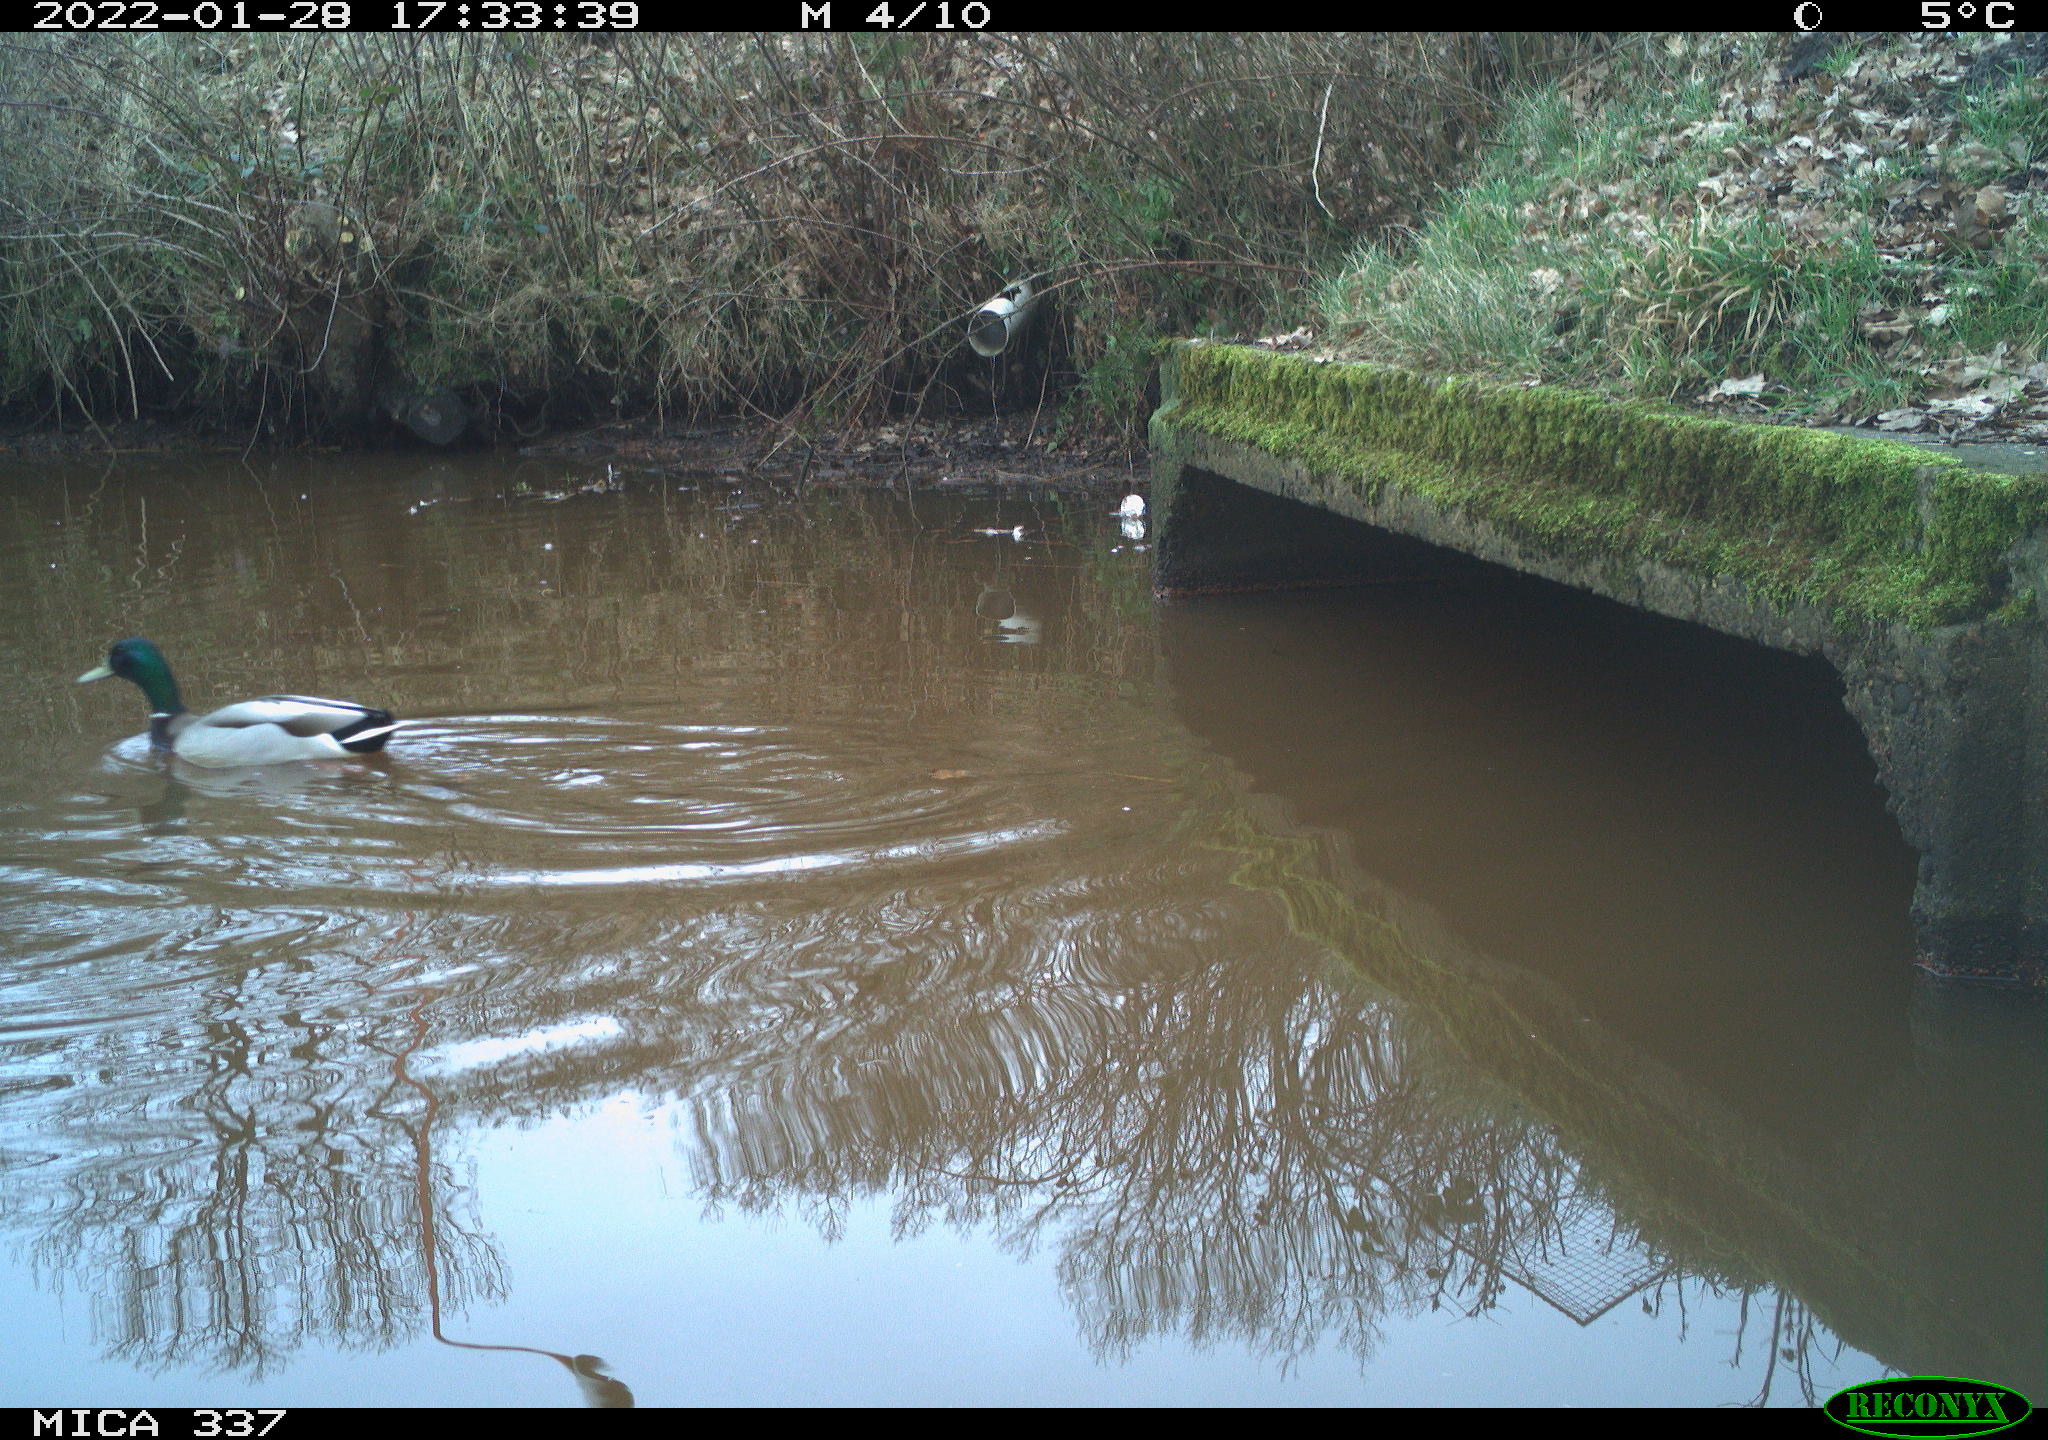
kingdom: Animalia
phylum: Chordata
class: Aves
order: Anseriformes
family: Anatidae
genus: Anas
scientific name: Anas platyrhynchos
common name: Mallard
